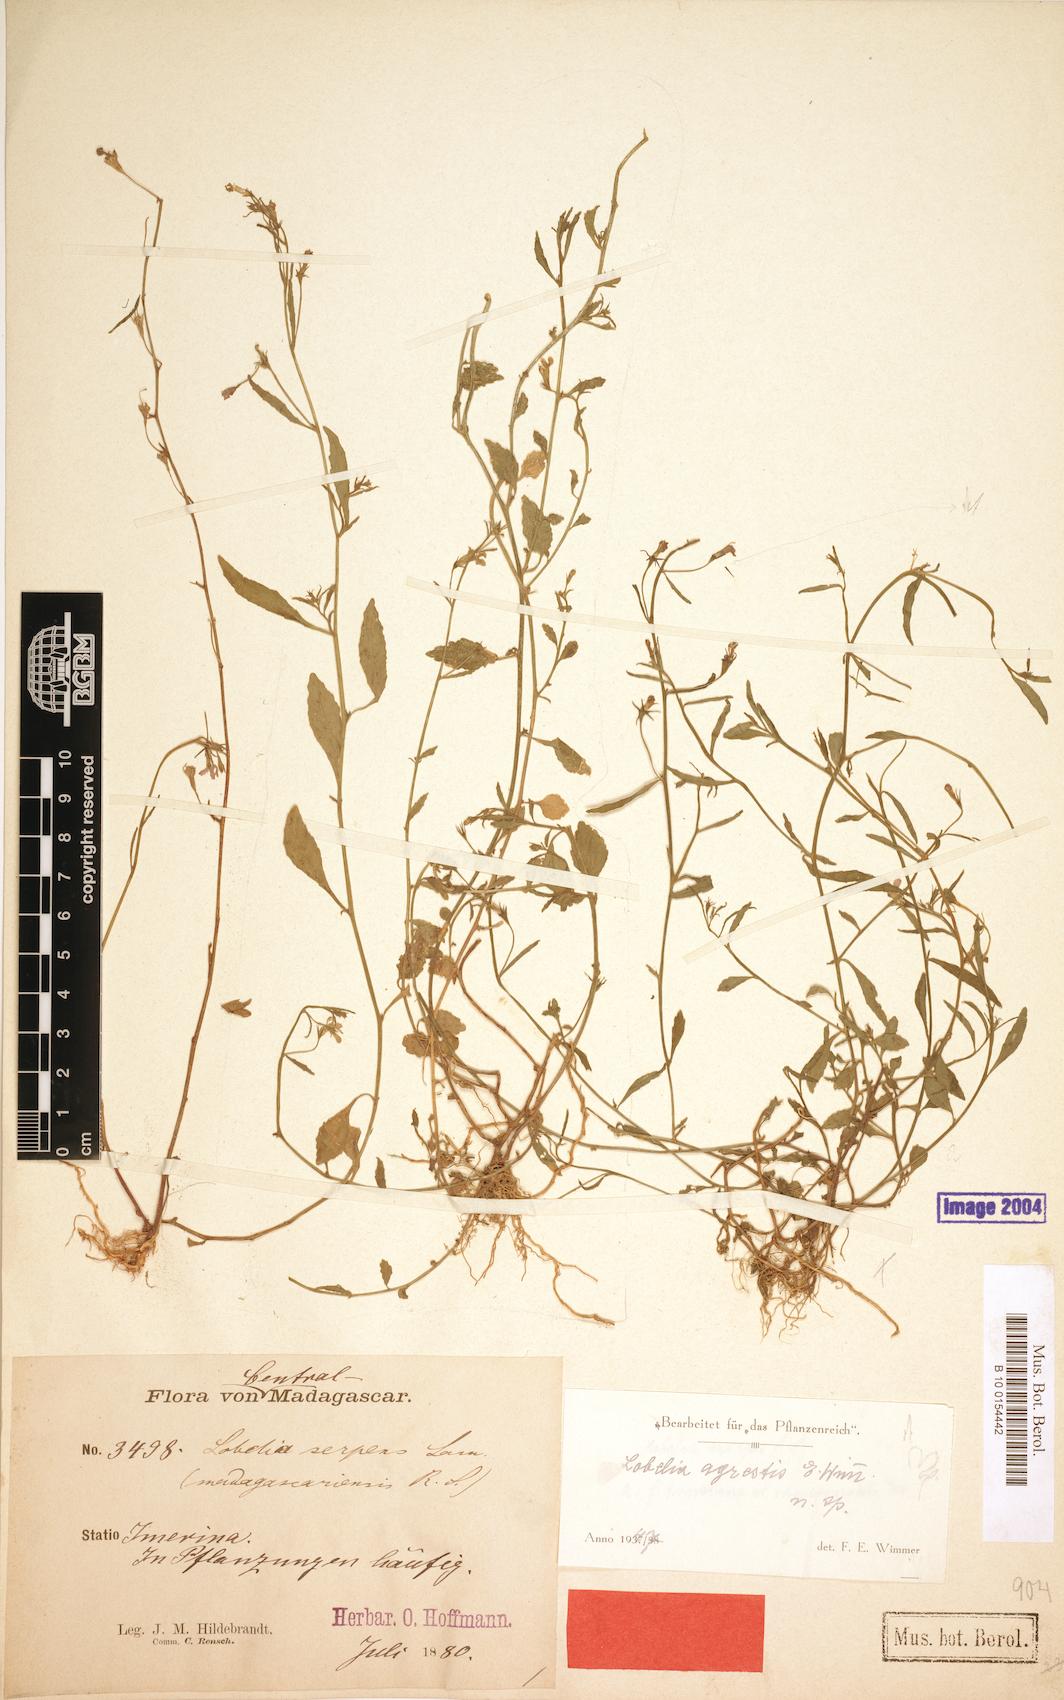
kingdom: Plantae
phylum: Tracheophyta
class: Magnoliopsida
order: Asterales
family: Campanulaceae
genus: Lobelia
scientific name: Lobelia agrestis
